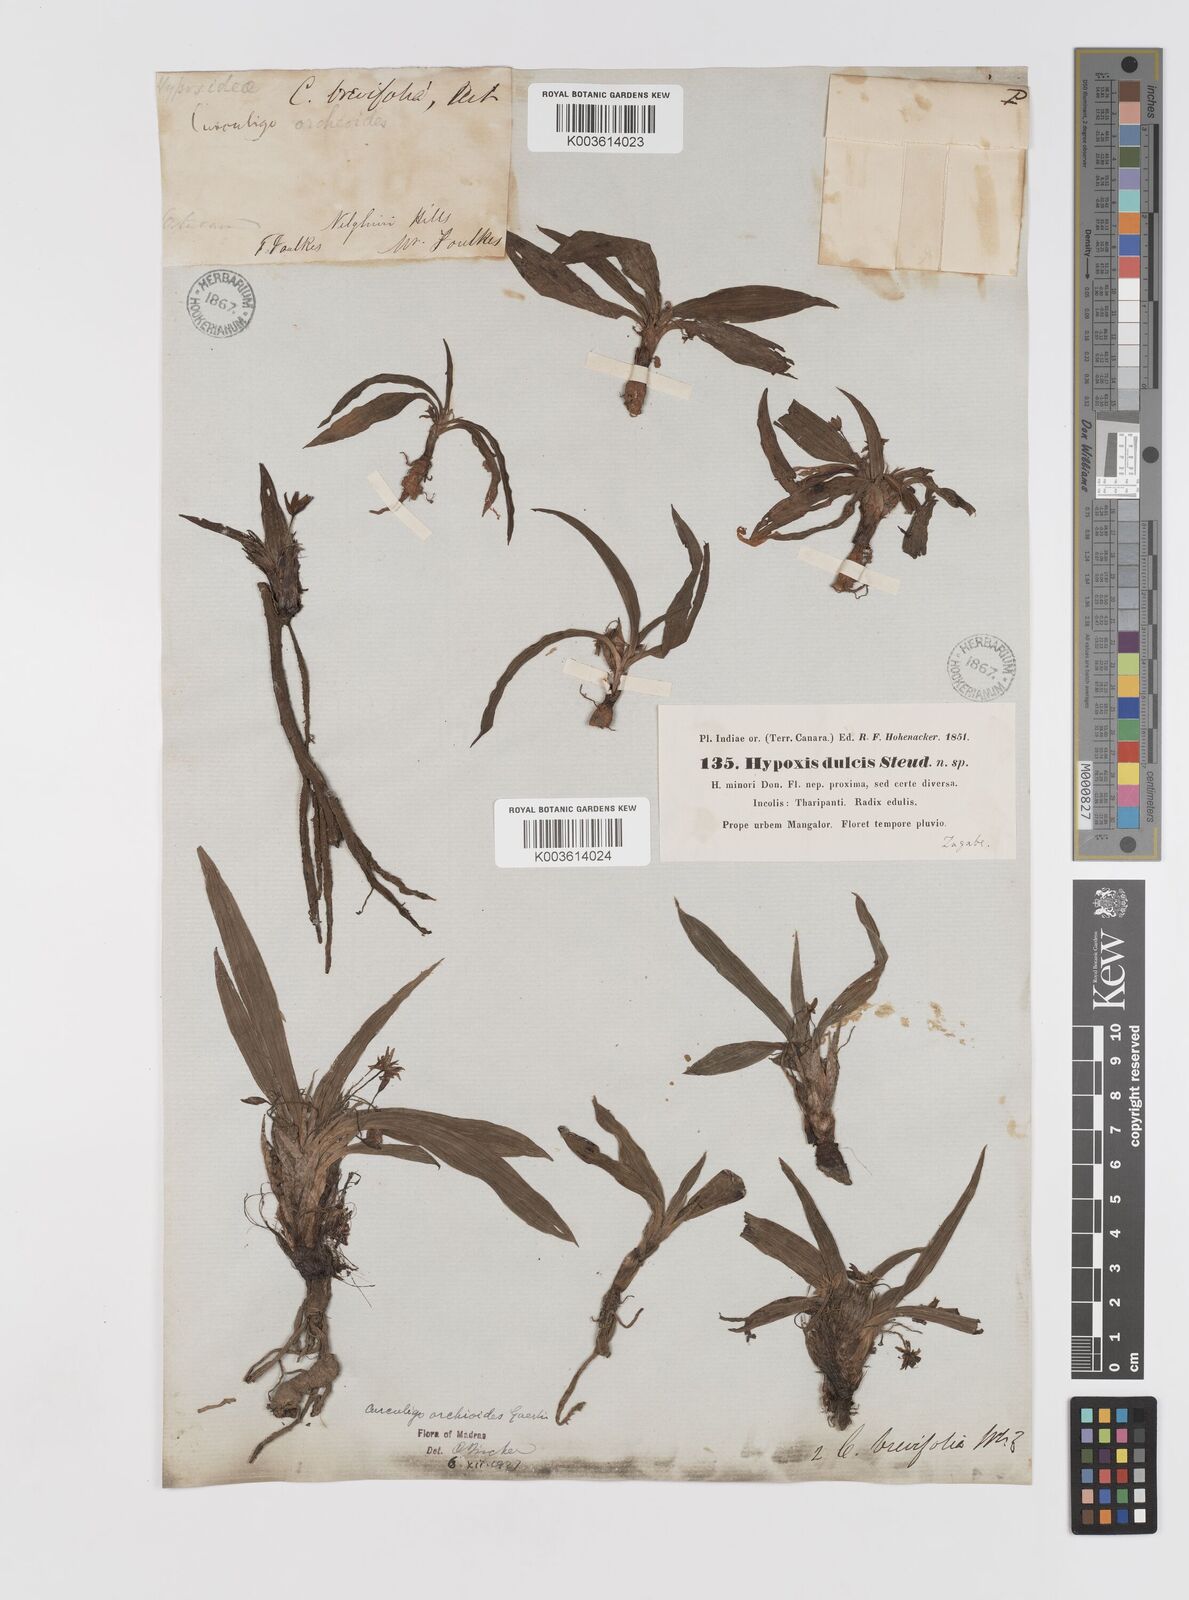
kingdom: Plantae
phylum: Tracheophyta
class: Liliopsida
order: Asparagales
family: Hypoxidaceae
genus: Curculigo
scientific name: Curculigo orchioides
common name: Golden eye-grass
